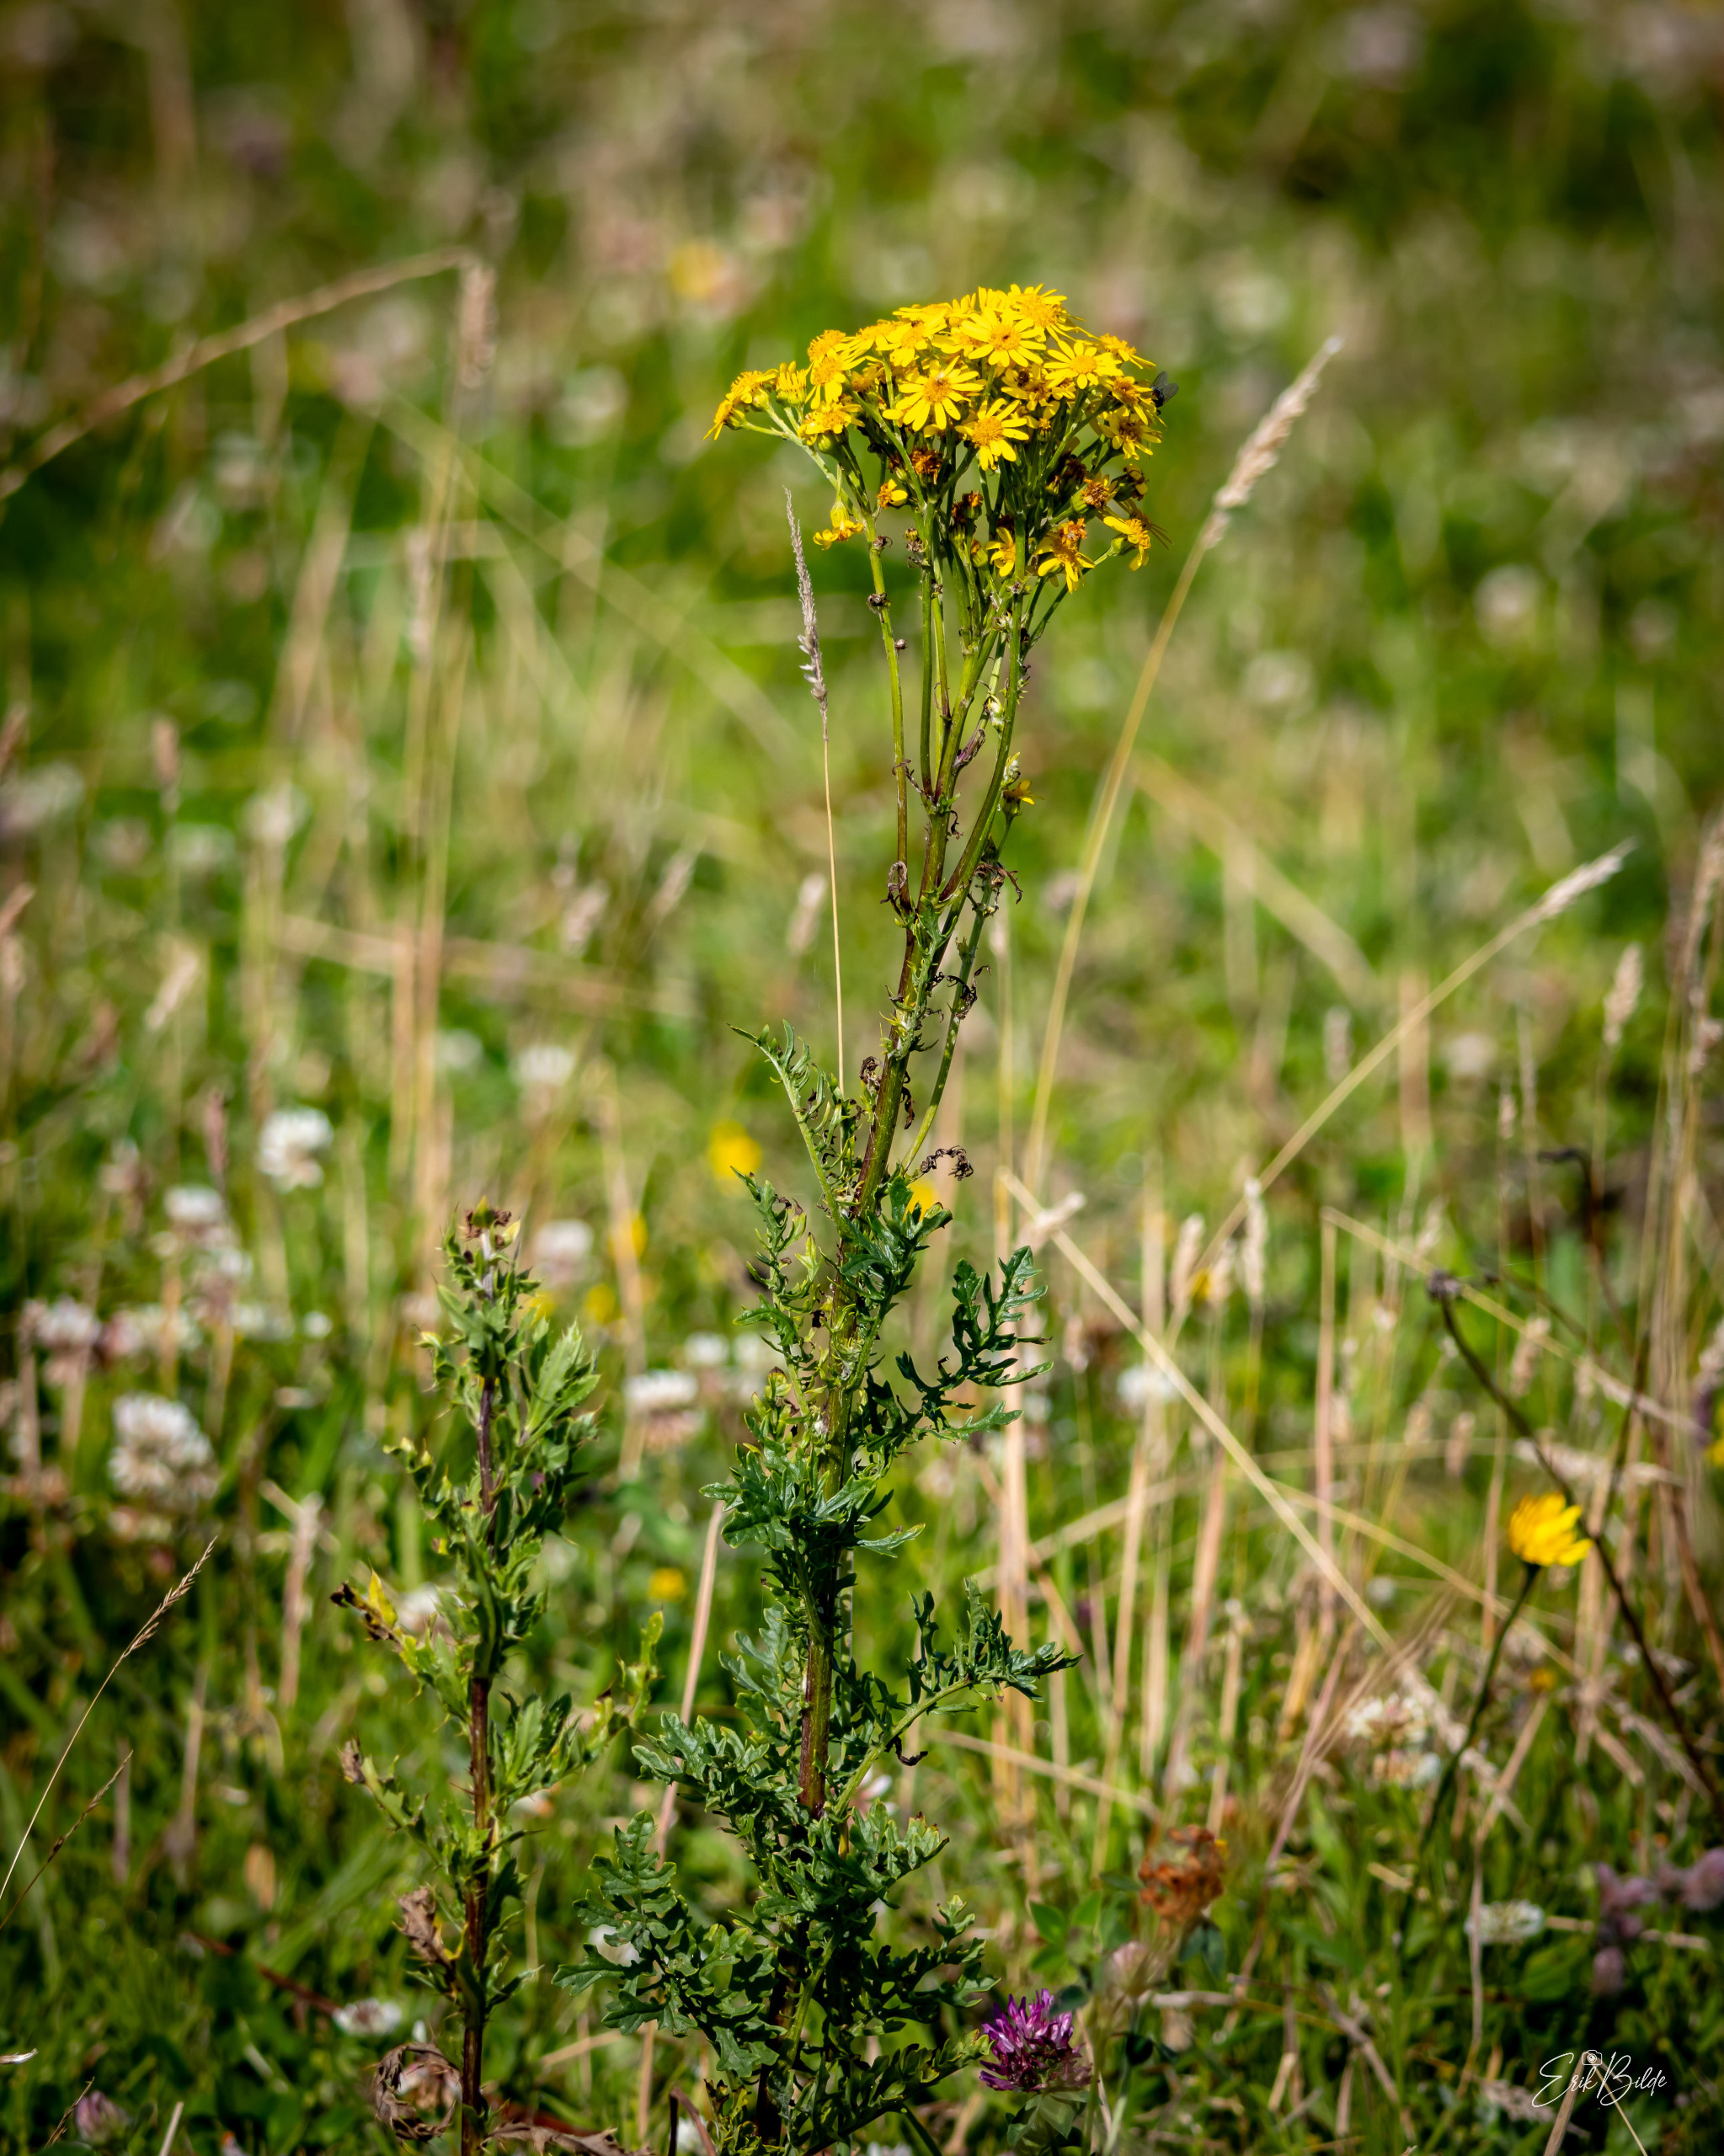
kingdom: Plantae
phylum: Tracheophyta
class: Magnoliopsida
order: Asterales
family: Asteraceae
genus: Jacobaea
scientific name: Jacobaea vulgaris
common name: Eng-brandbæger
